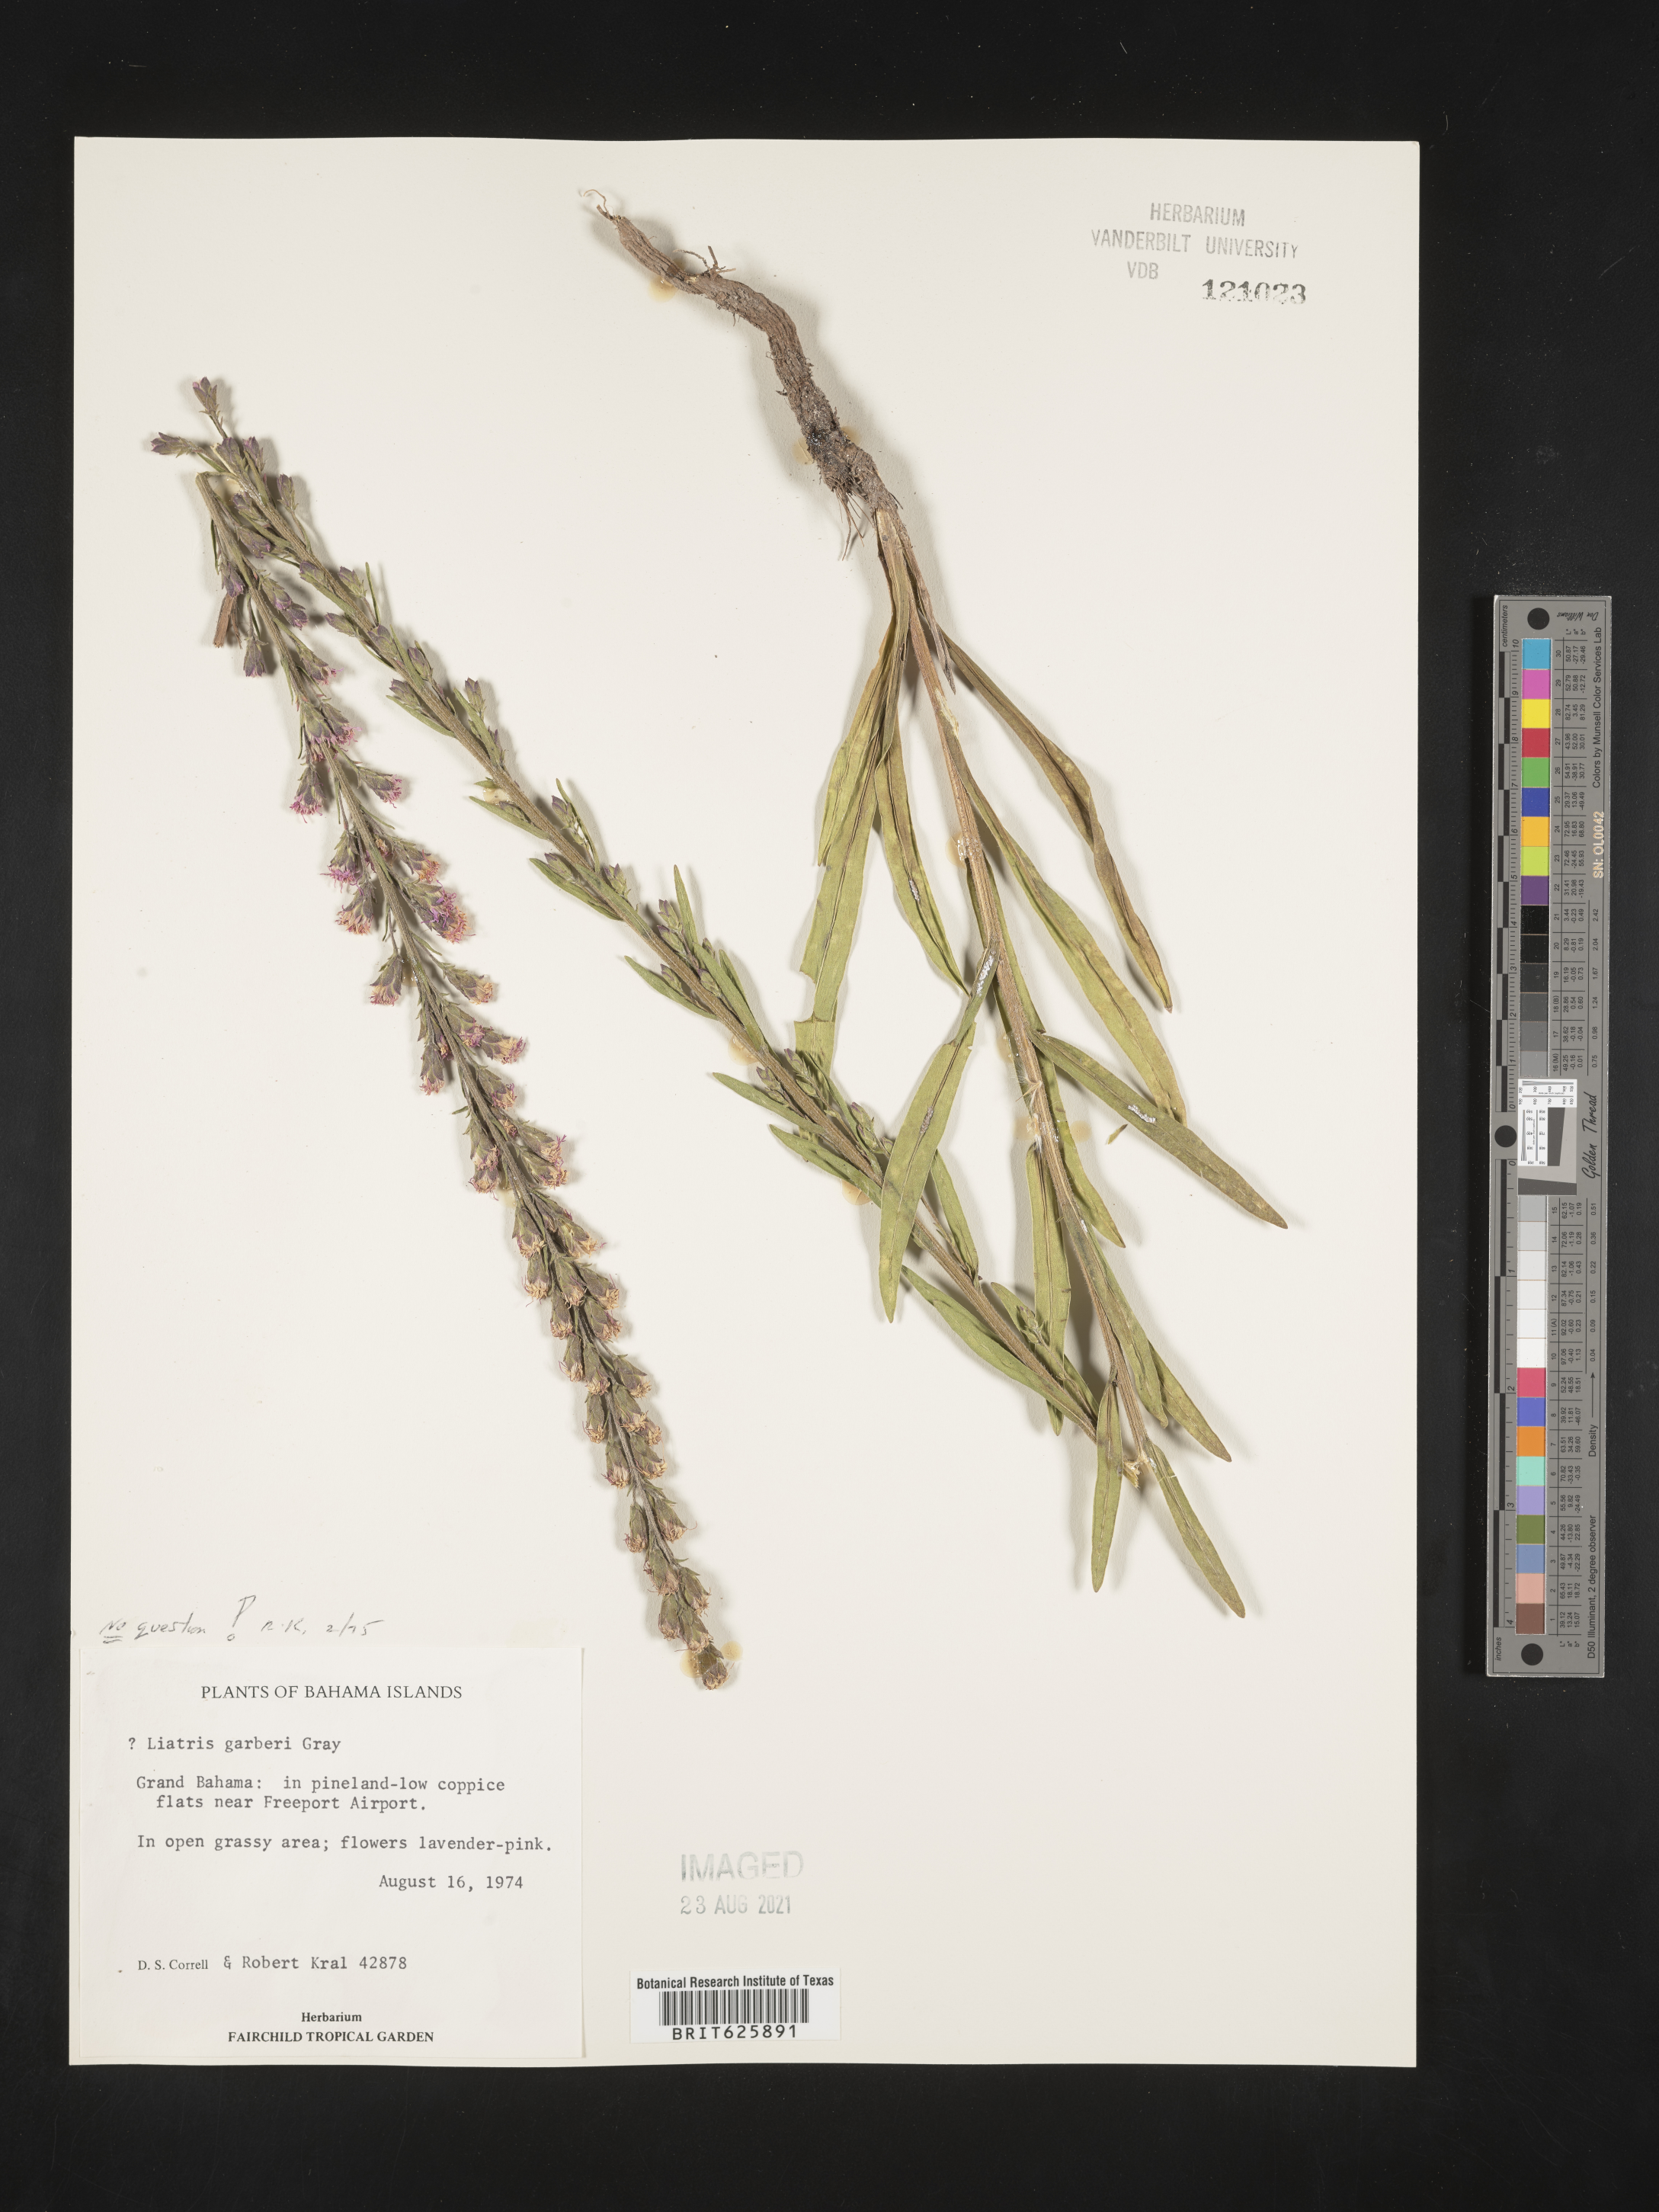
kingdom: Plantae
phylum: Tracheophyta
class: Magnoliopsida
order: Asterales
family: Asteraceae
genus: Liatris
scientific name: Liatris garberi
